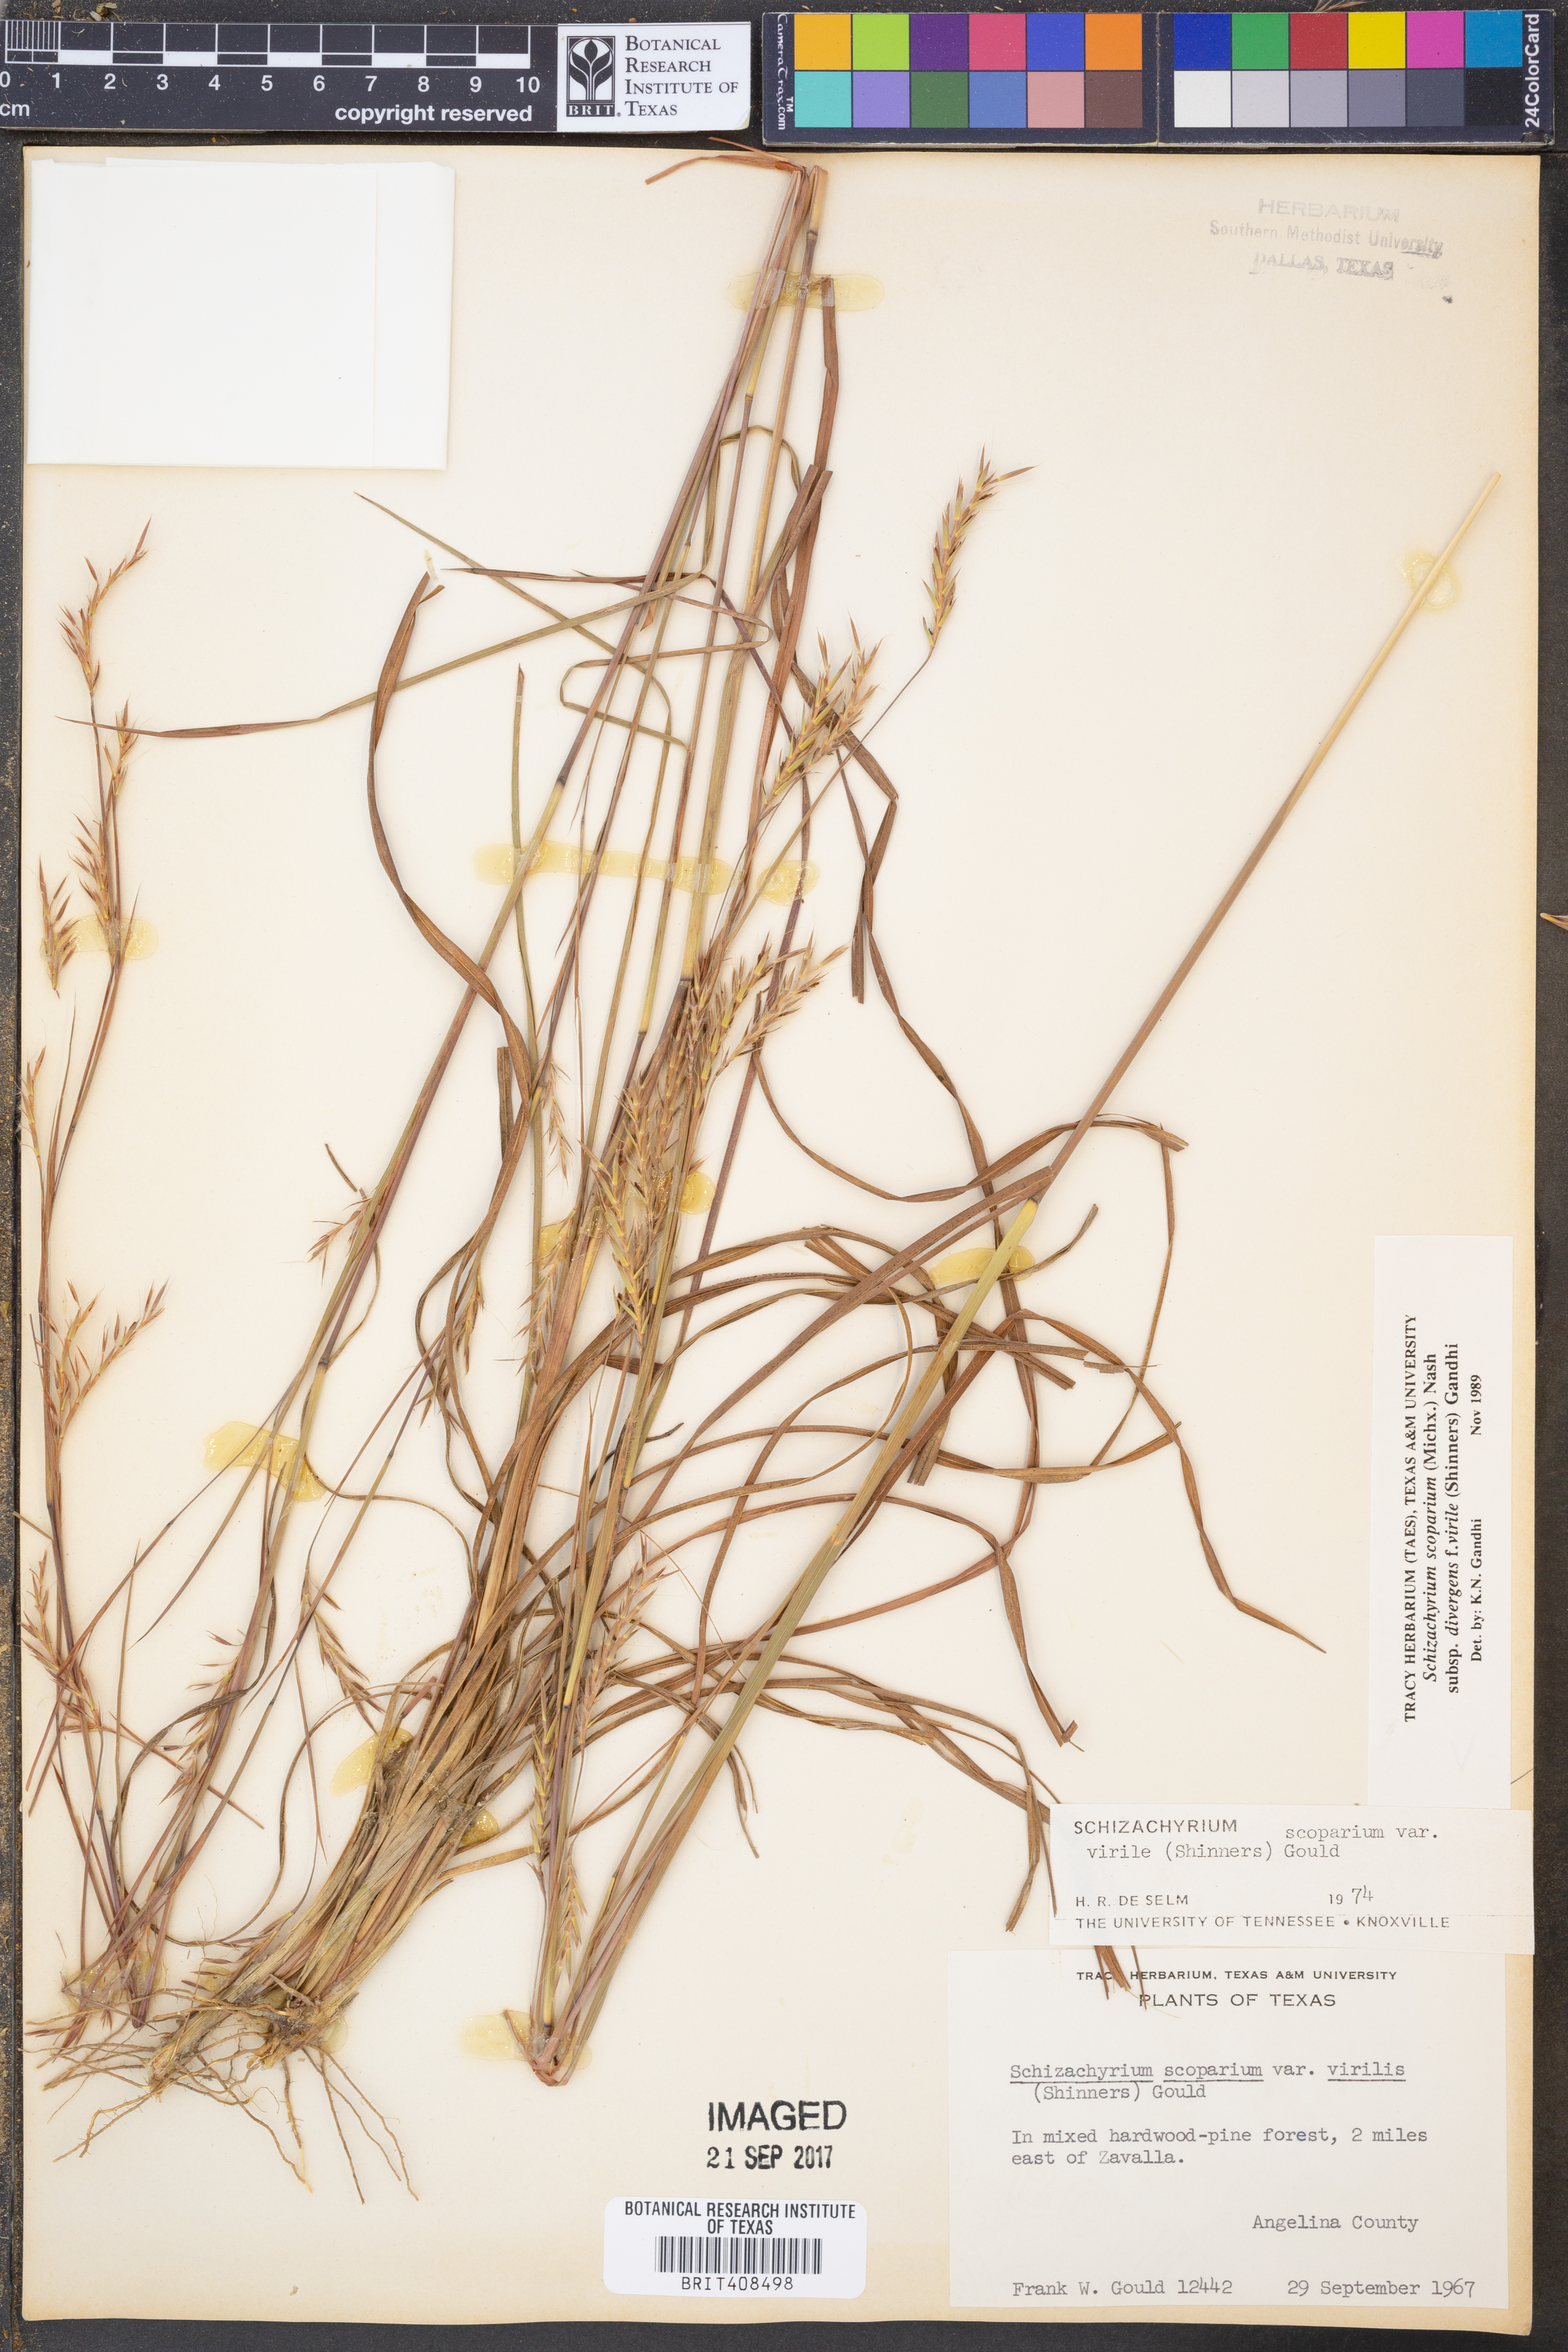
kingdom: Plantae
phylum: Tracheophyta
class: Liliopsida
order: Poales
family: Poaceae
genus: Schizachyrium
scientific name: Schizachyrium scoparium
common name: Little bluestem
